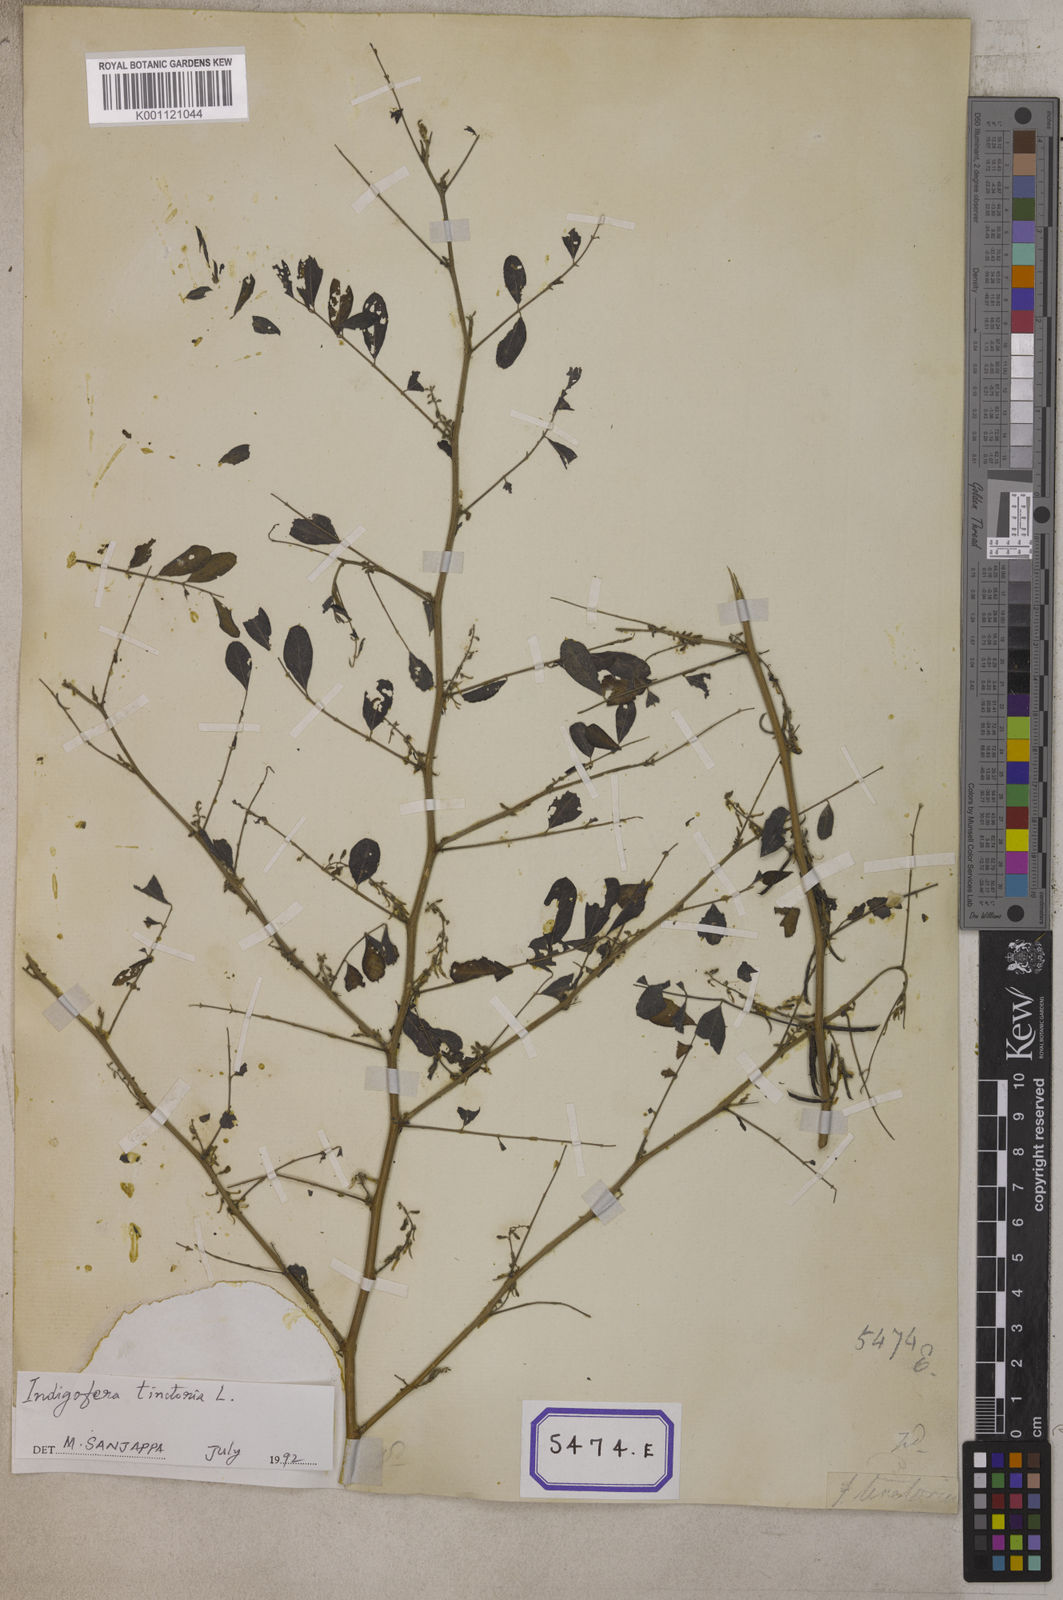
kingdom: Plantae
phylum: Tracheophyta
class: Magnoliopsida
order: Fabales
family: Fabaceae
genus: Indigofera
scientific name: Indigofera tinctoria
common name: True indigo
